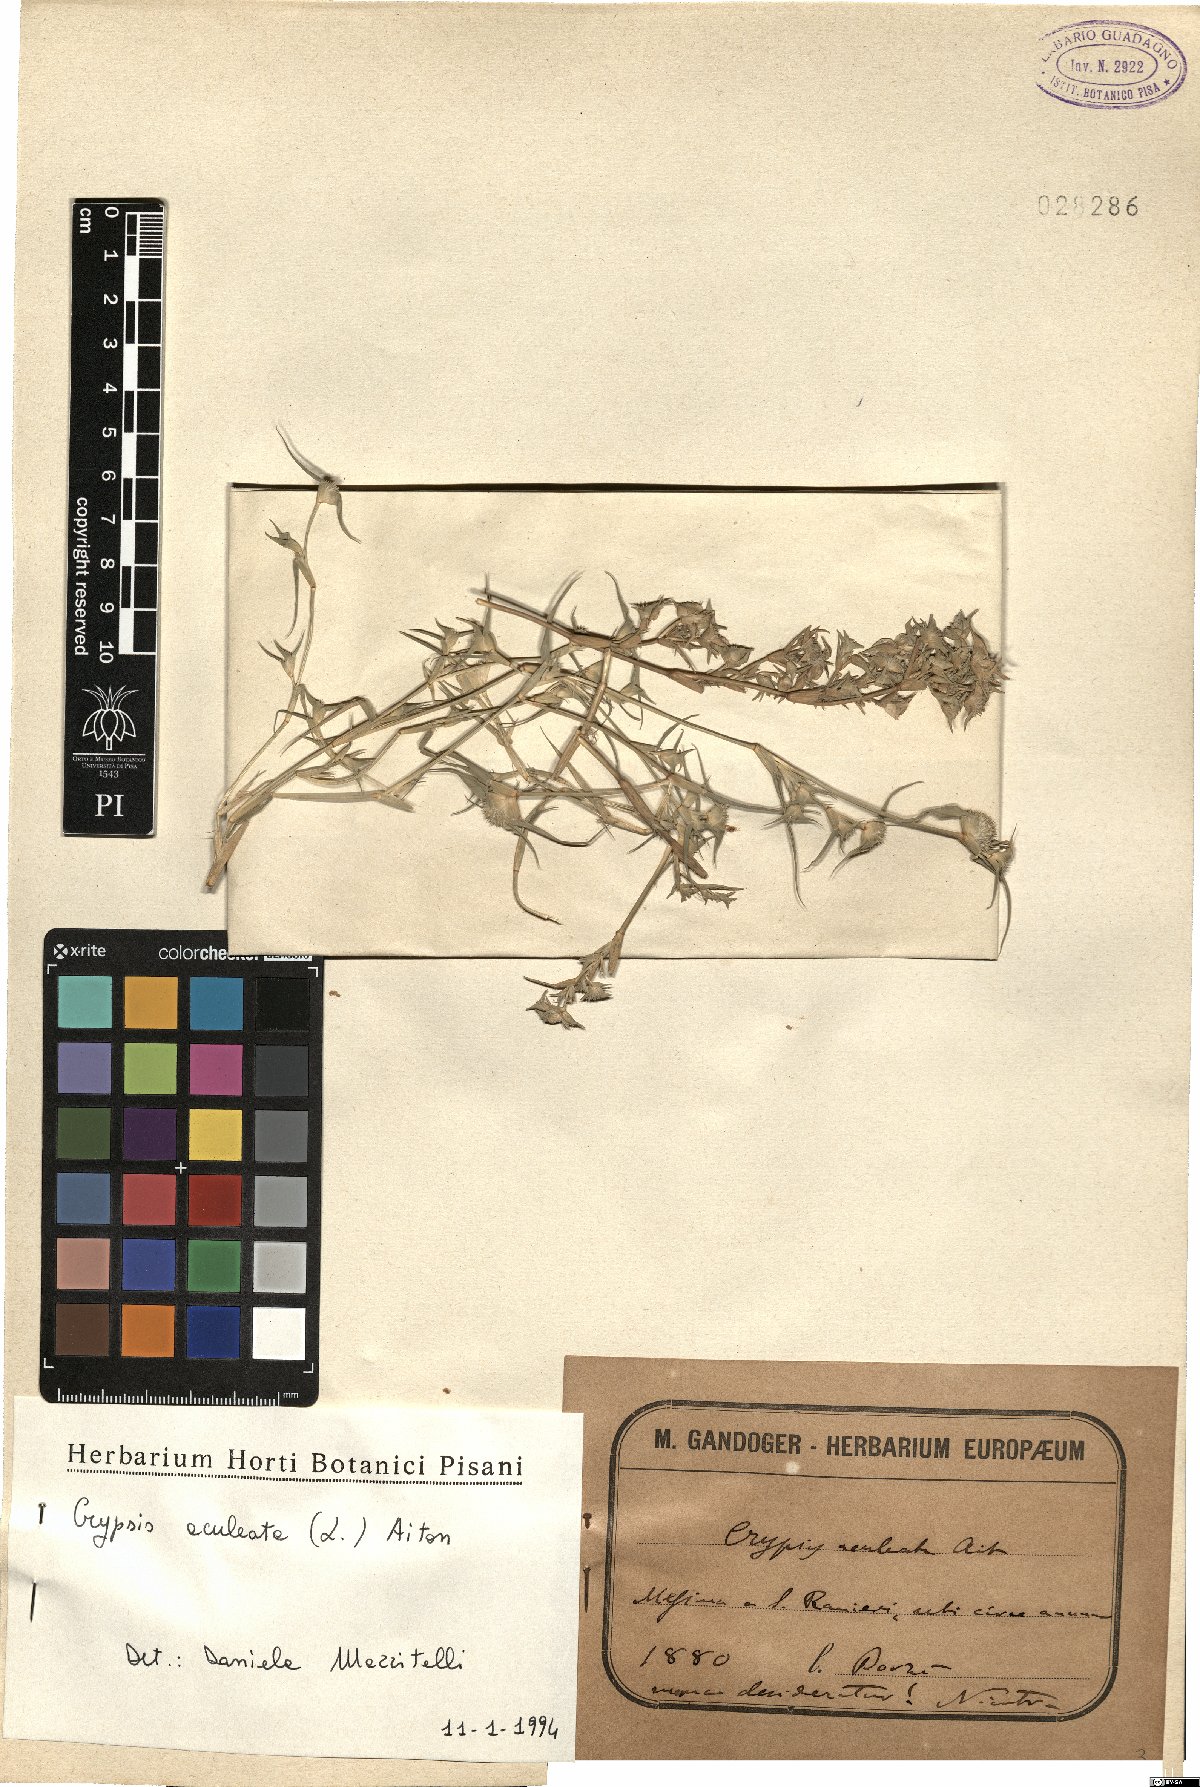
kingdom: Plantae
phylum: Tracheophyta
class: Liliopsida
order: Poales
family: Poaceae
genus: Sporobolus
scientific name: Sporobolus aculeatus
